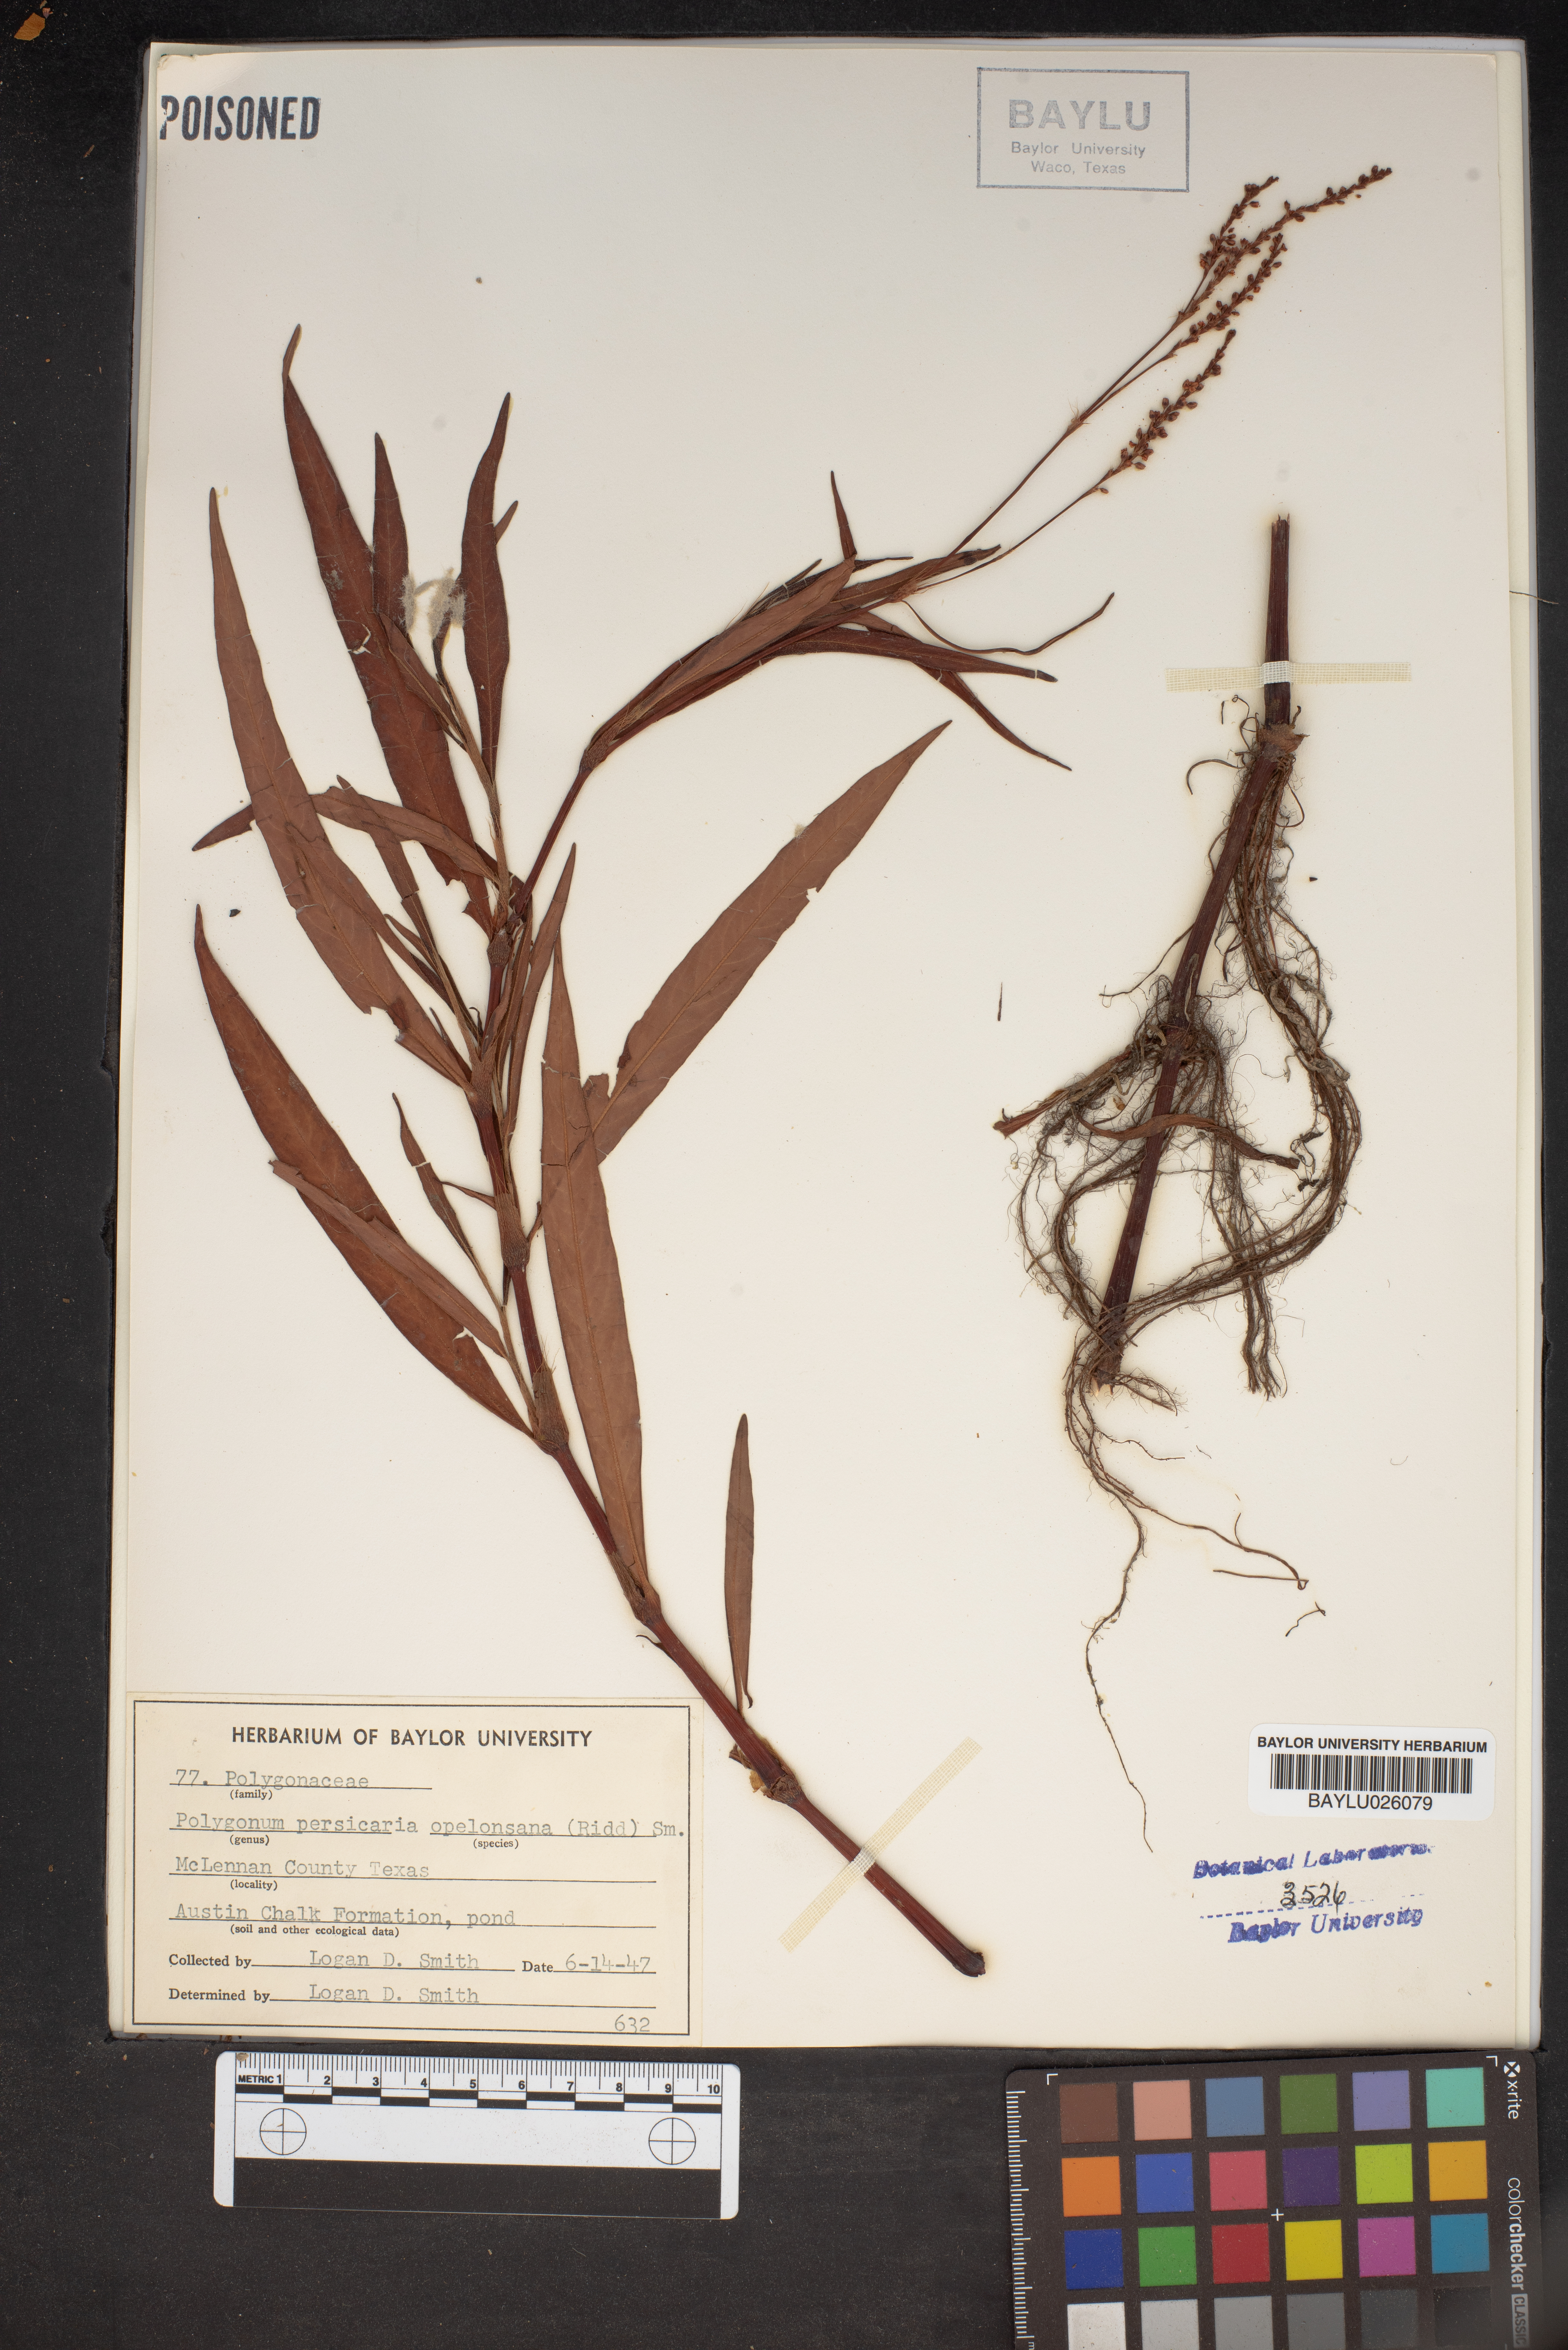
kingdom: Plantae
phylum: Tracheophyta
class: Magnoliopsida
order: Caryophyllales
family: Polygonaceae
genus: Polygonum
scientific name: Polygonum persicaria
